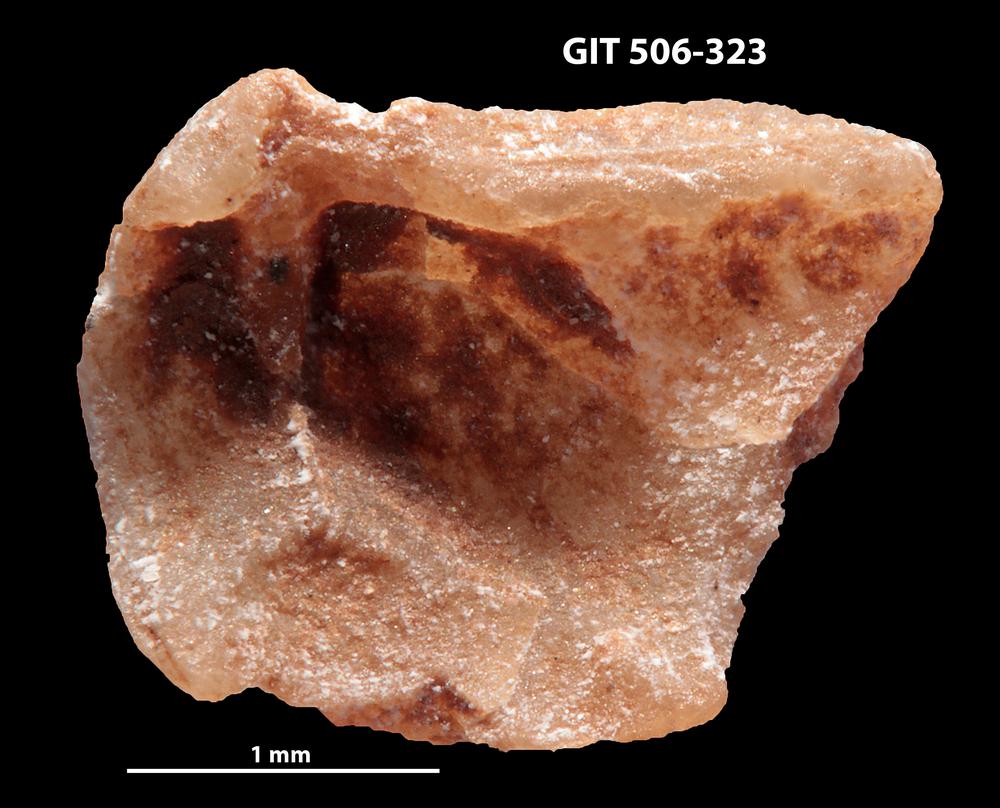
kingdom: Animalia
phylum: Brachiopoda
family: Oldhaminidae
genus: Eoplectodonta
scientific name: Eoplectodonta penkillensis
